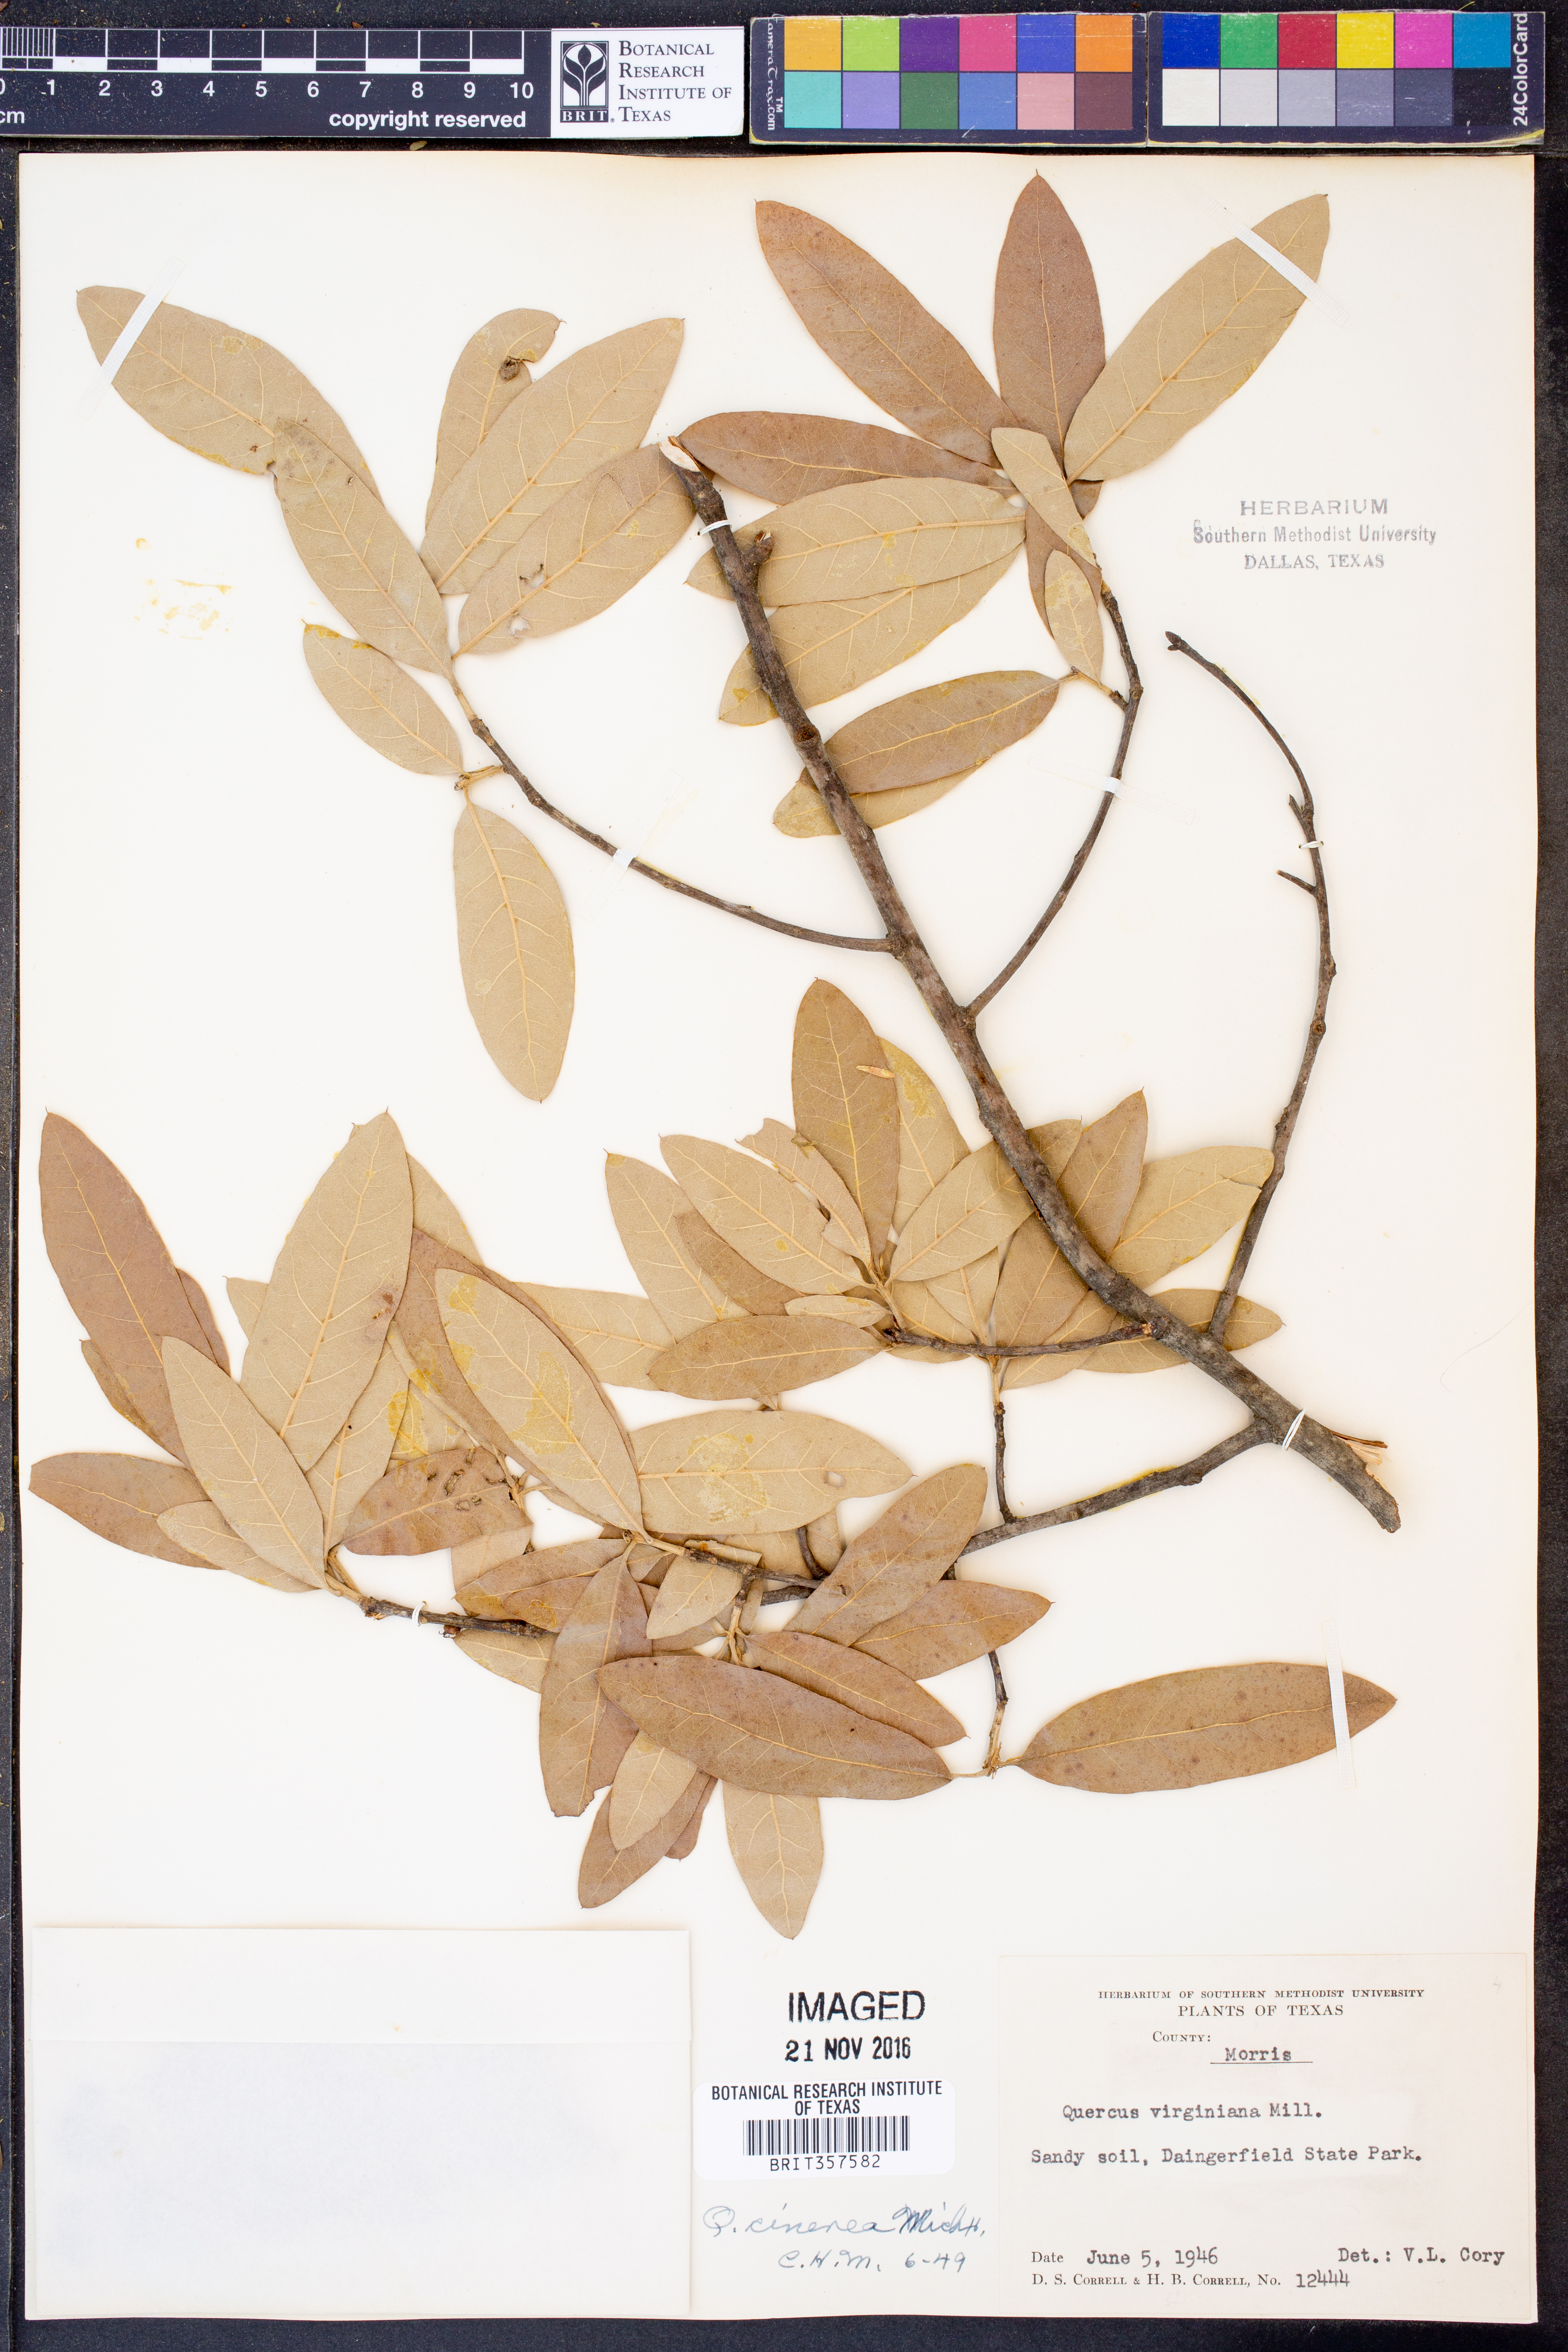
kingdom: Plantae
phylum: Tracheophyta
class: Magnoliopsida
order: Fagales
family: Fagaceae
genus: Quercus
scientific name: Quercus incana
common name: Bluejack oak
